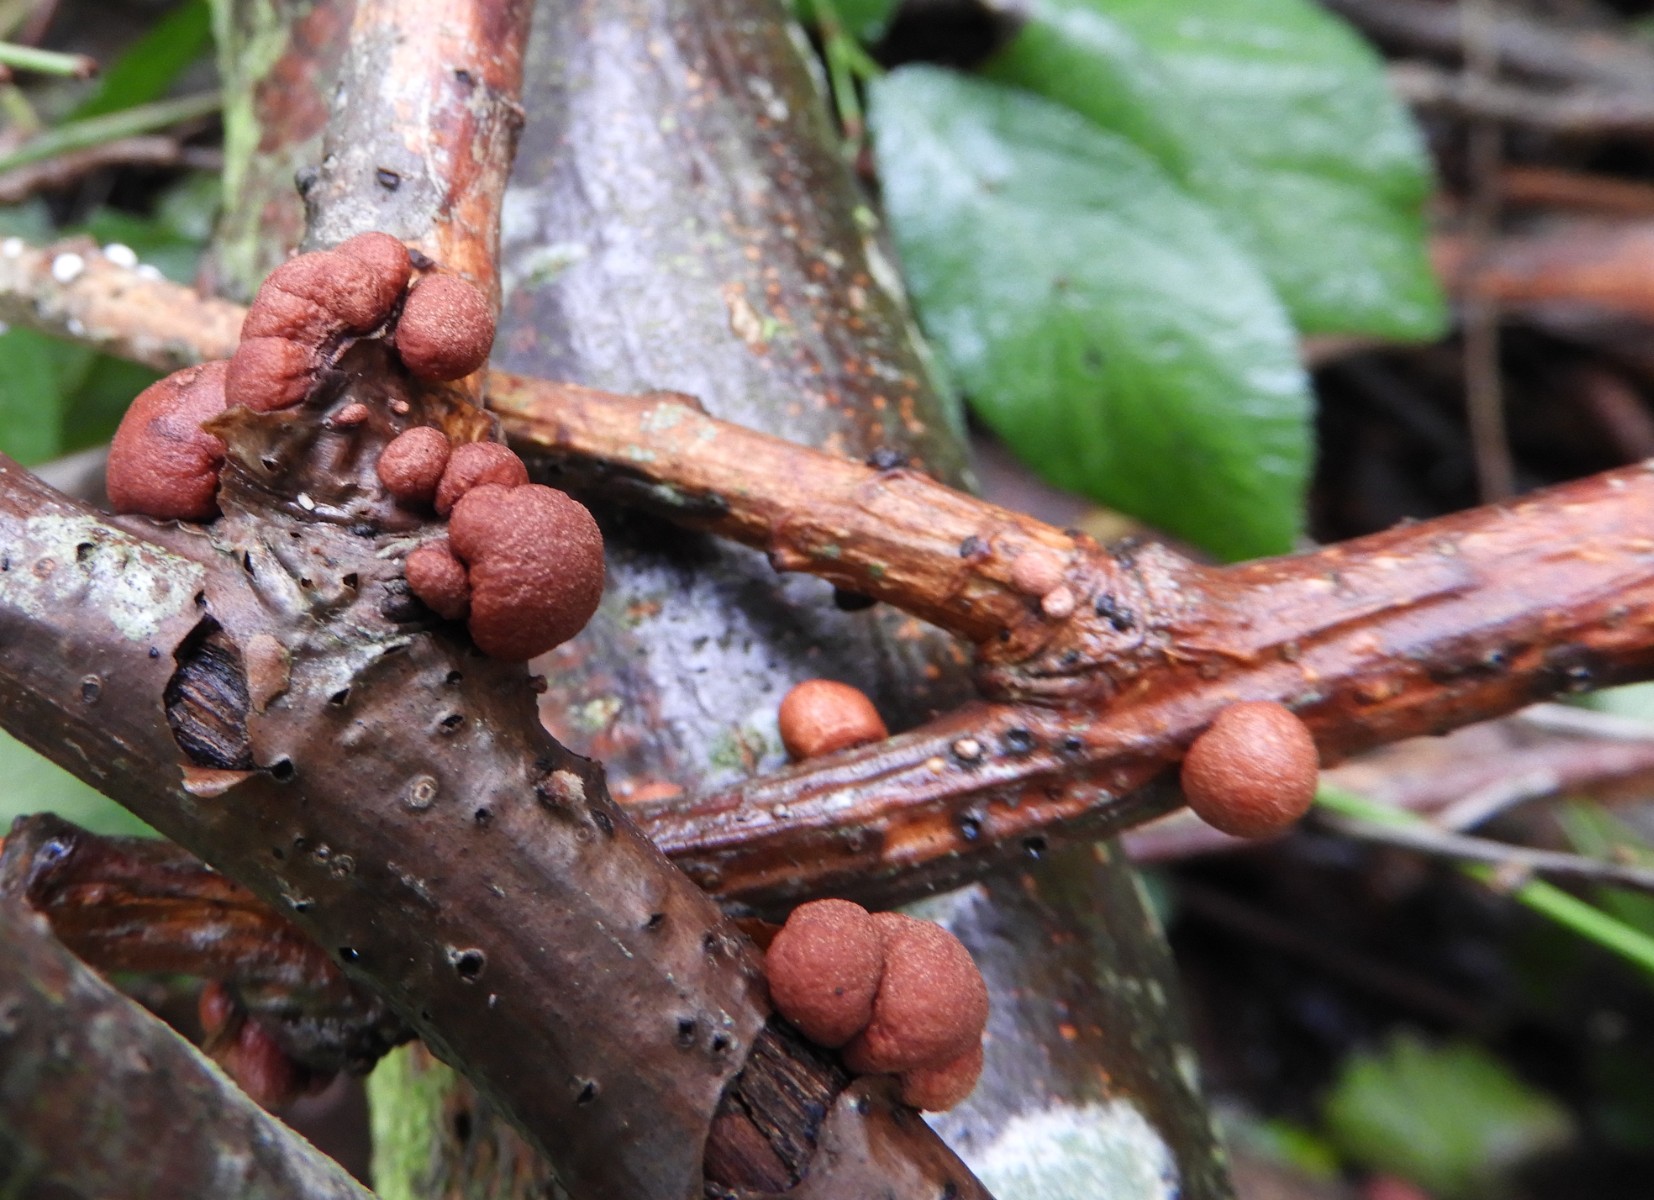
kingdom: Fungi
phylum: Ascomycota
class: Sordariomycetes
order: Hypocreales
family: Hypocreaceae
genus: Trichoderma
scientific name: Trichoderma europaeum
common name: rosabrun kødkerne
